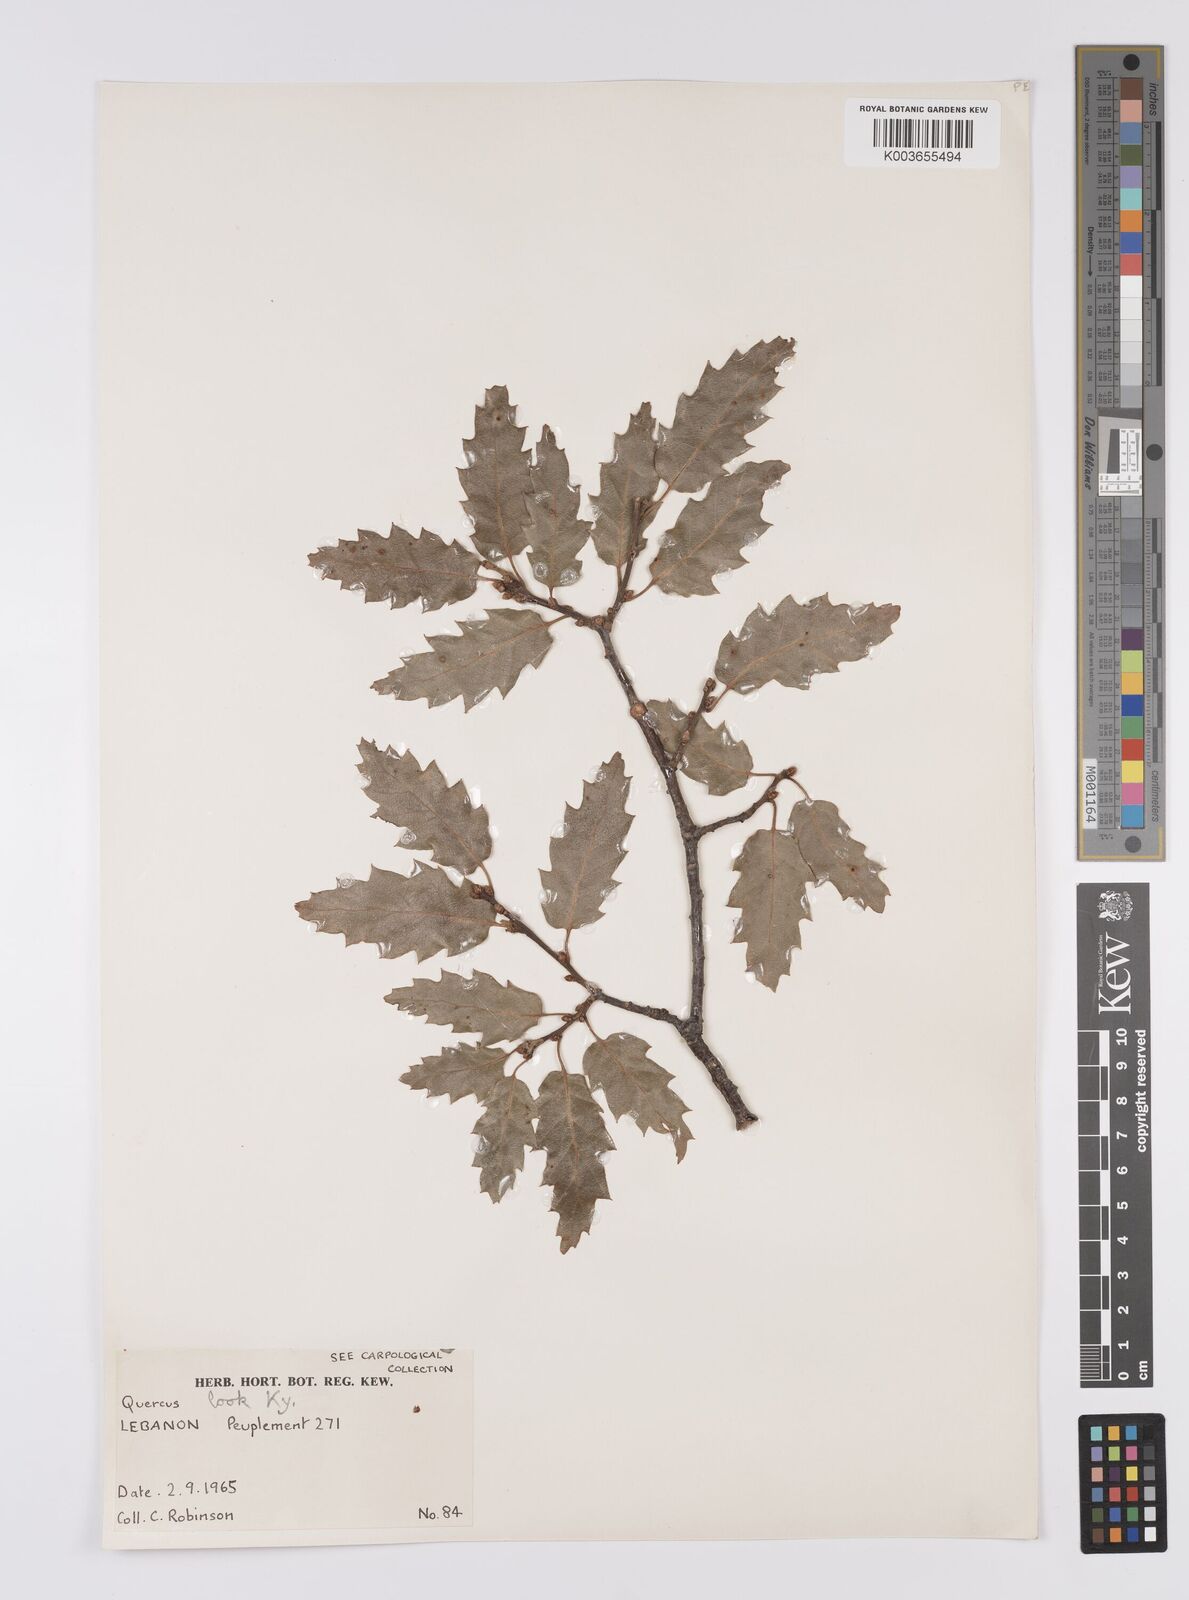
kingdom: Plantae
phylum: Tracheophyta
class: Magnoliopsida
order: Fagales
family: Fagaceae
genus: Quercus
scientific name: Quercus look
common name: Look oak
